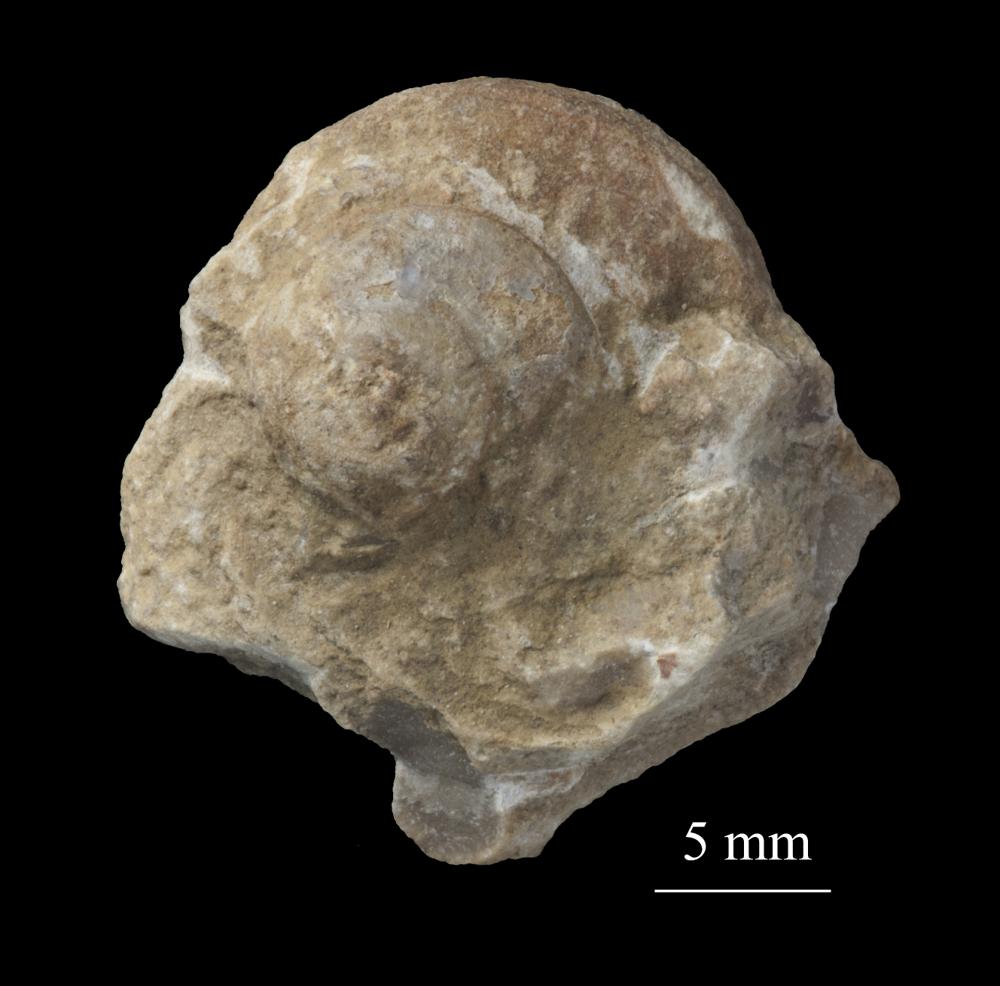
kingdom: Animalia
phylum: Mollusca
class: Gastropoda
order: Pleurotomariida
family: Phymatopleuridae
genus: Worthenia
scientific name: Worthenia
